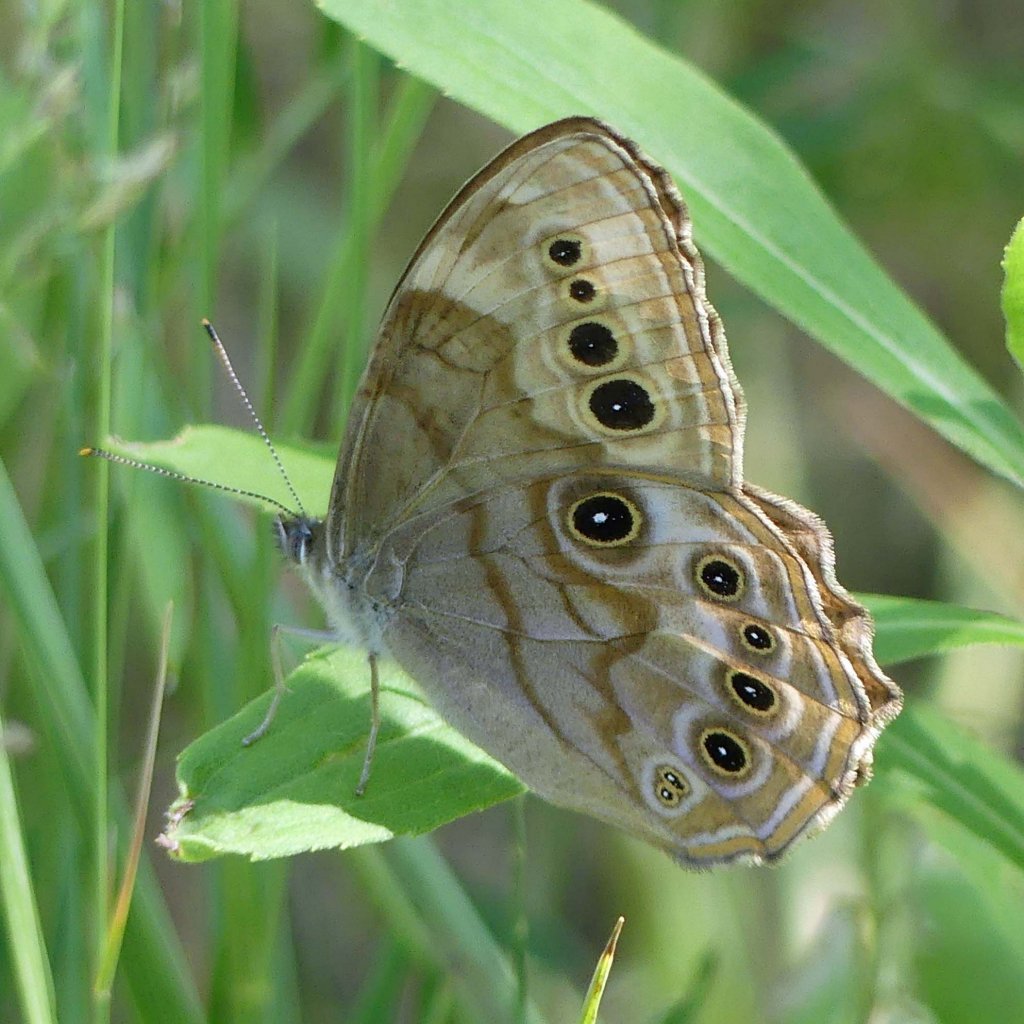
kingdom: Animalia
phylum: Arthropoda
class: Insecta
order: Lepidoptera
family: Nymphalidae
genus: Lethe
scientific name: Lethe anthedon
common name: Northern Pearly-Eye
